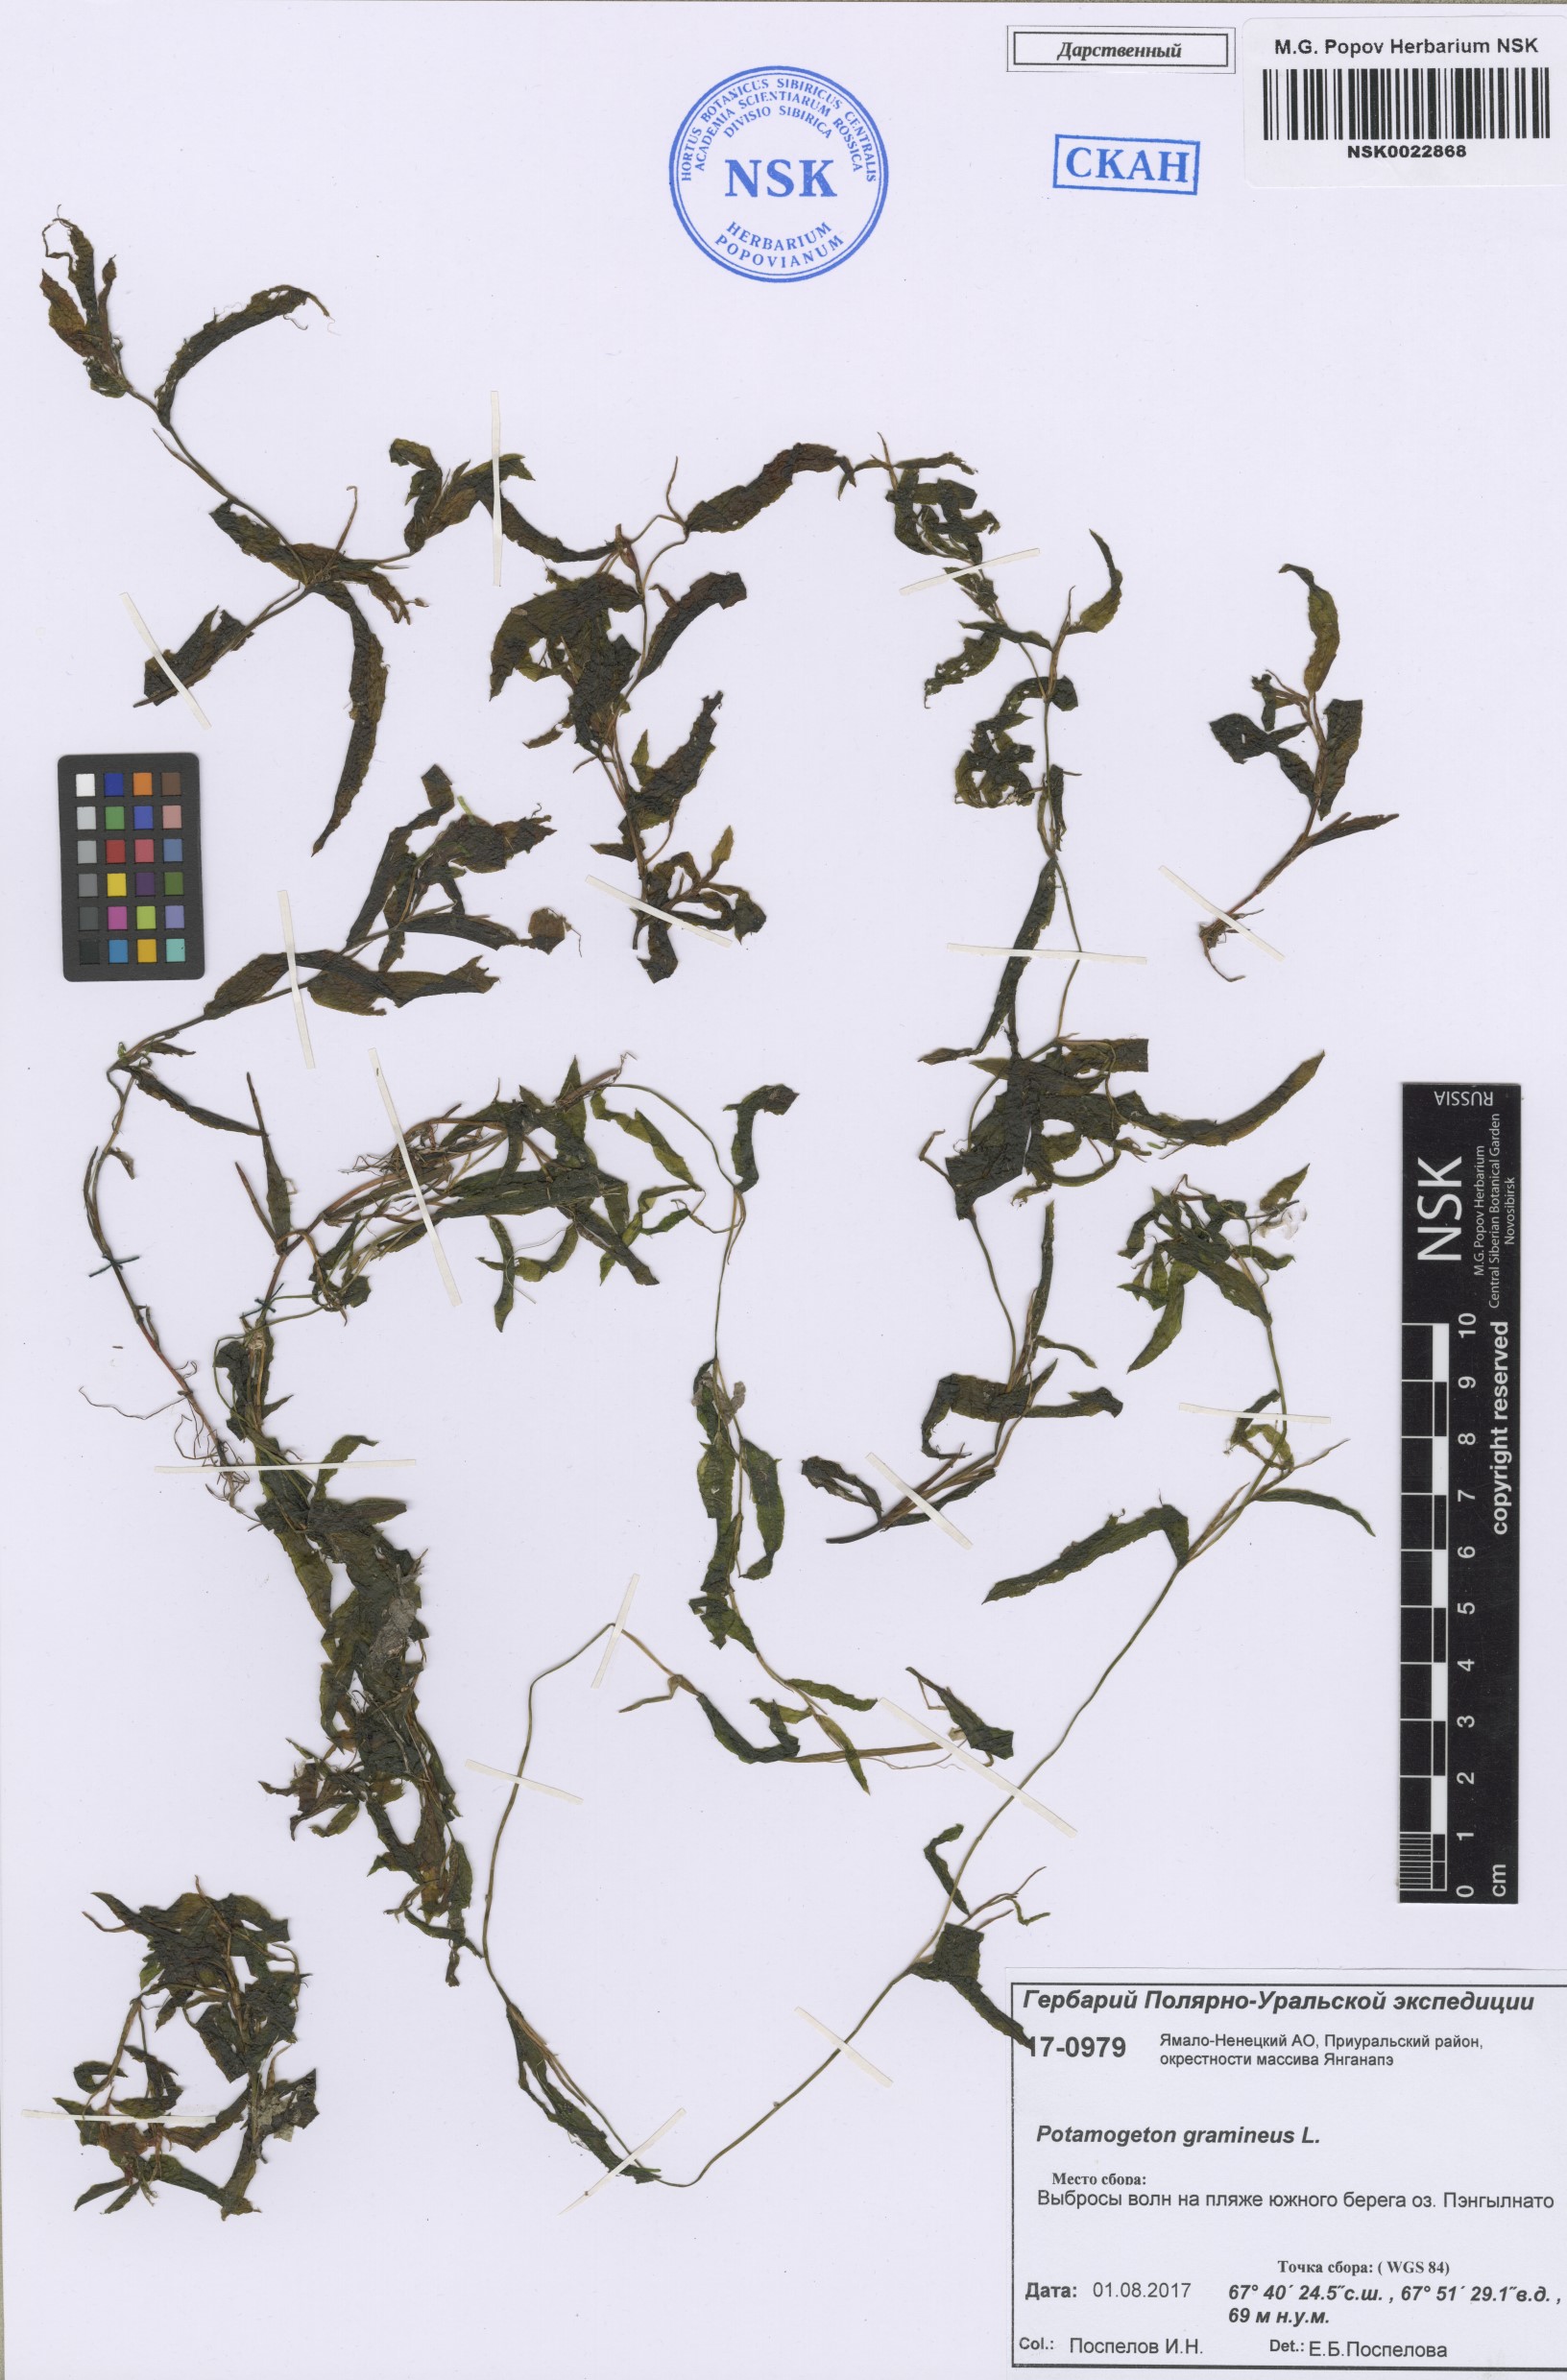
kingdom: Plantae
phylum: Tracheophyta
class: Liliopsida
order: Alismatales
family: Potamogetonaceae
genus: Potamogeton
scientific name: Potamogeton gramineus
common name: Various-leaved pondweed
